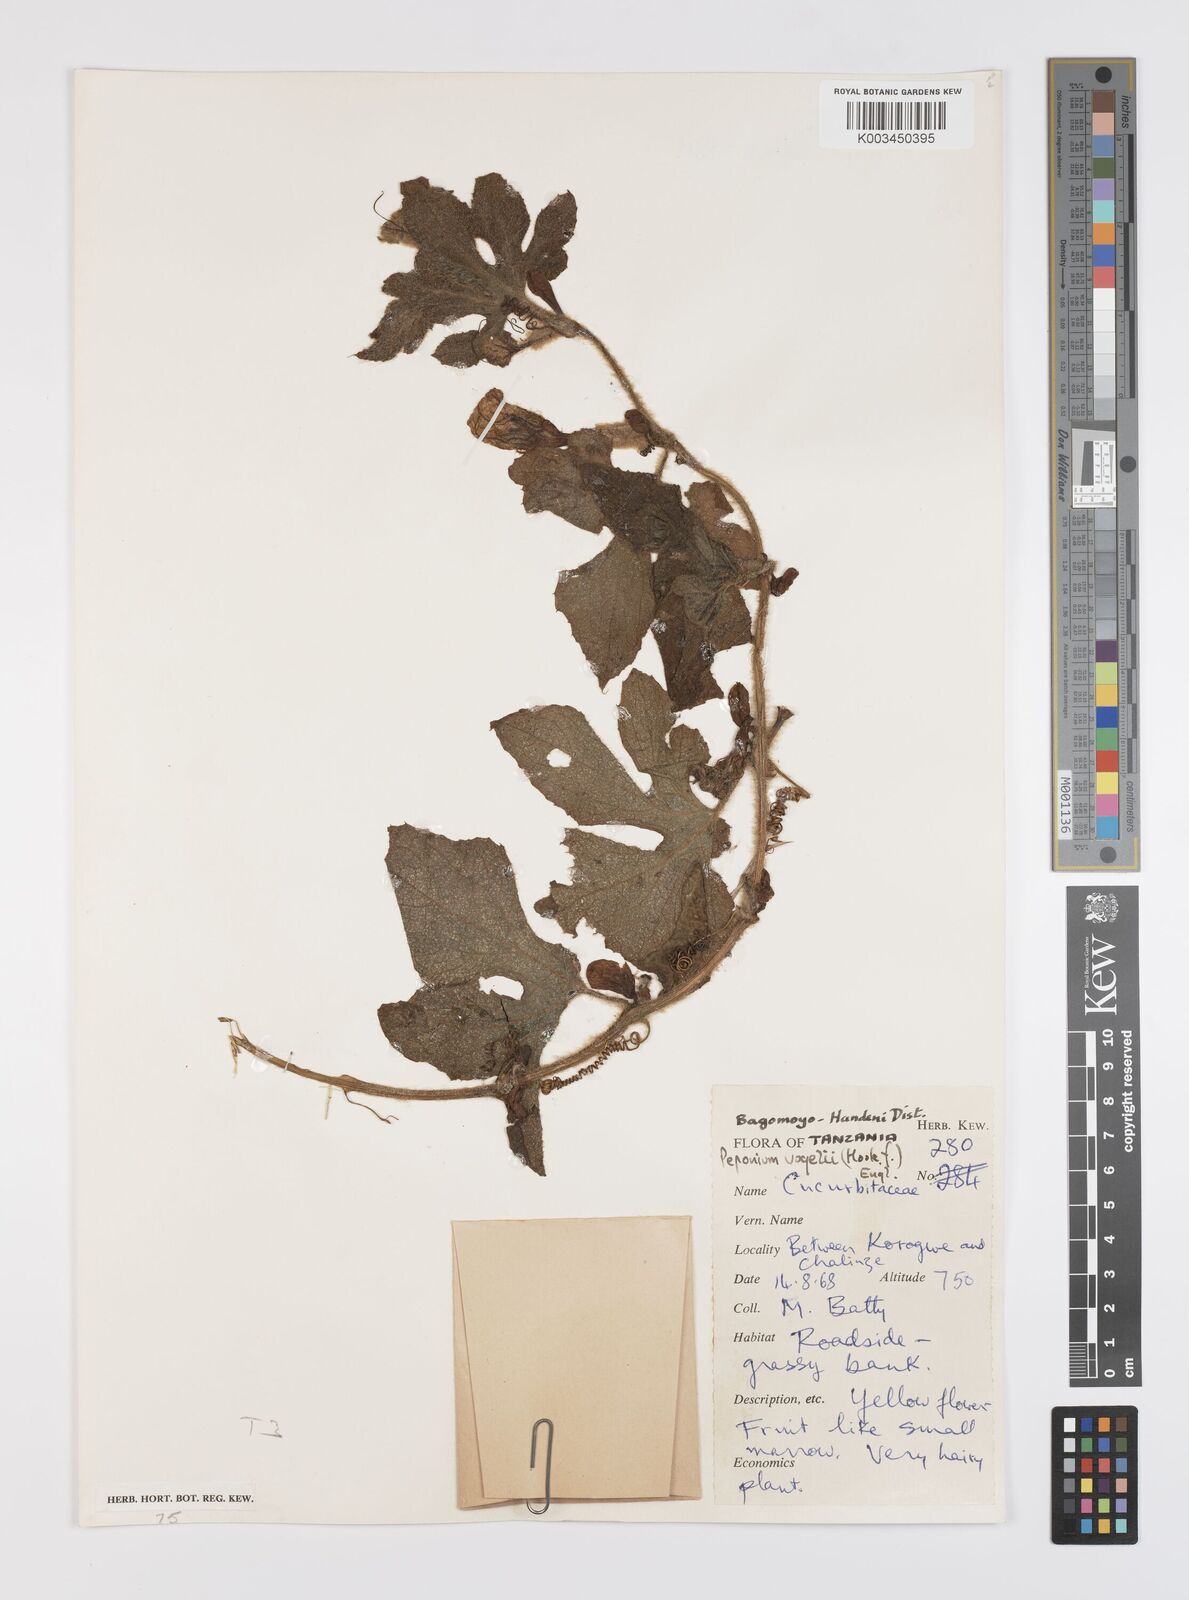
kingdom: Plantae
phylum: Tracheophyta
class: Magnoliopsida
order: Cucurbitales
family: Cucurbitaceae
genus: Peponium
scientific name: Peponium vogelii
